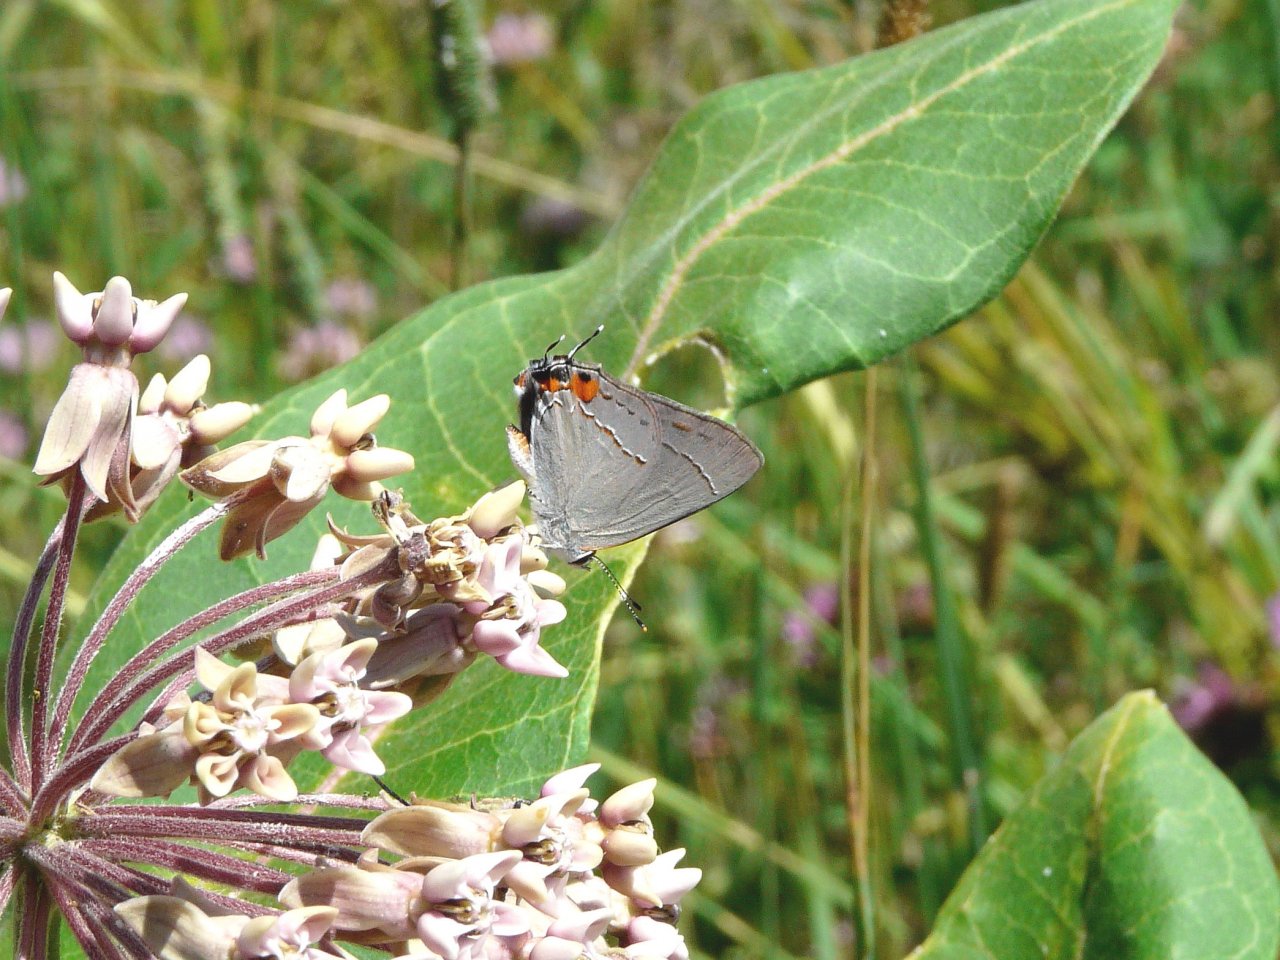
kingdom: Animalia
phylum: Arthropoda
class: Insecta
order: Lepidoptera
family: Lycaenidae
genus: Strymon
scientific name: Strymon melinus
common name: Gray Hairstreak
